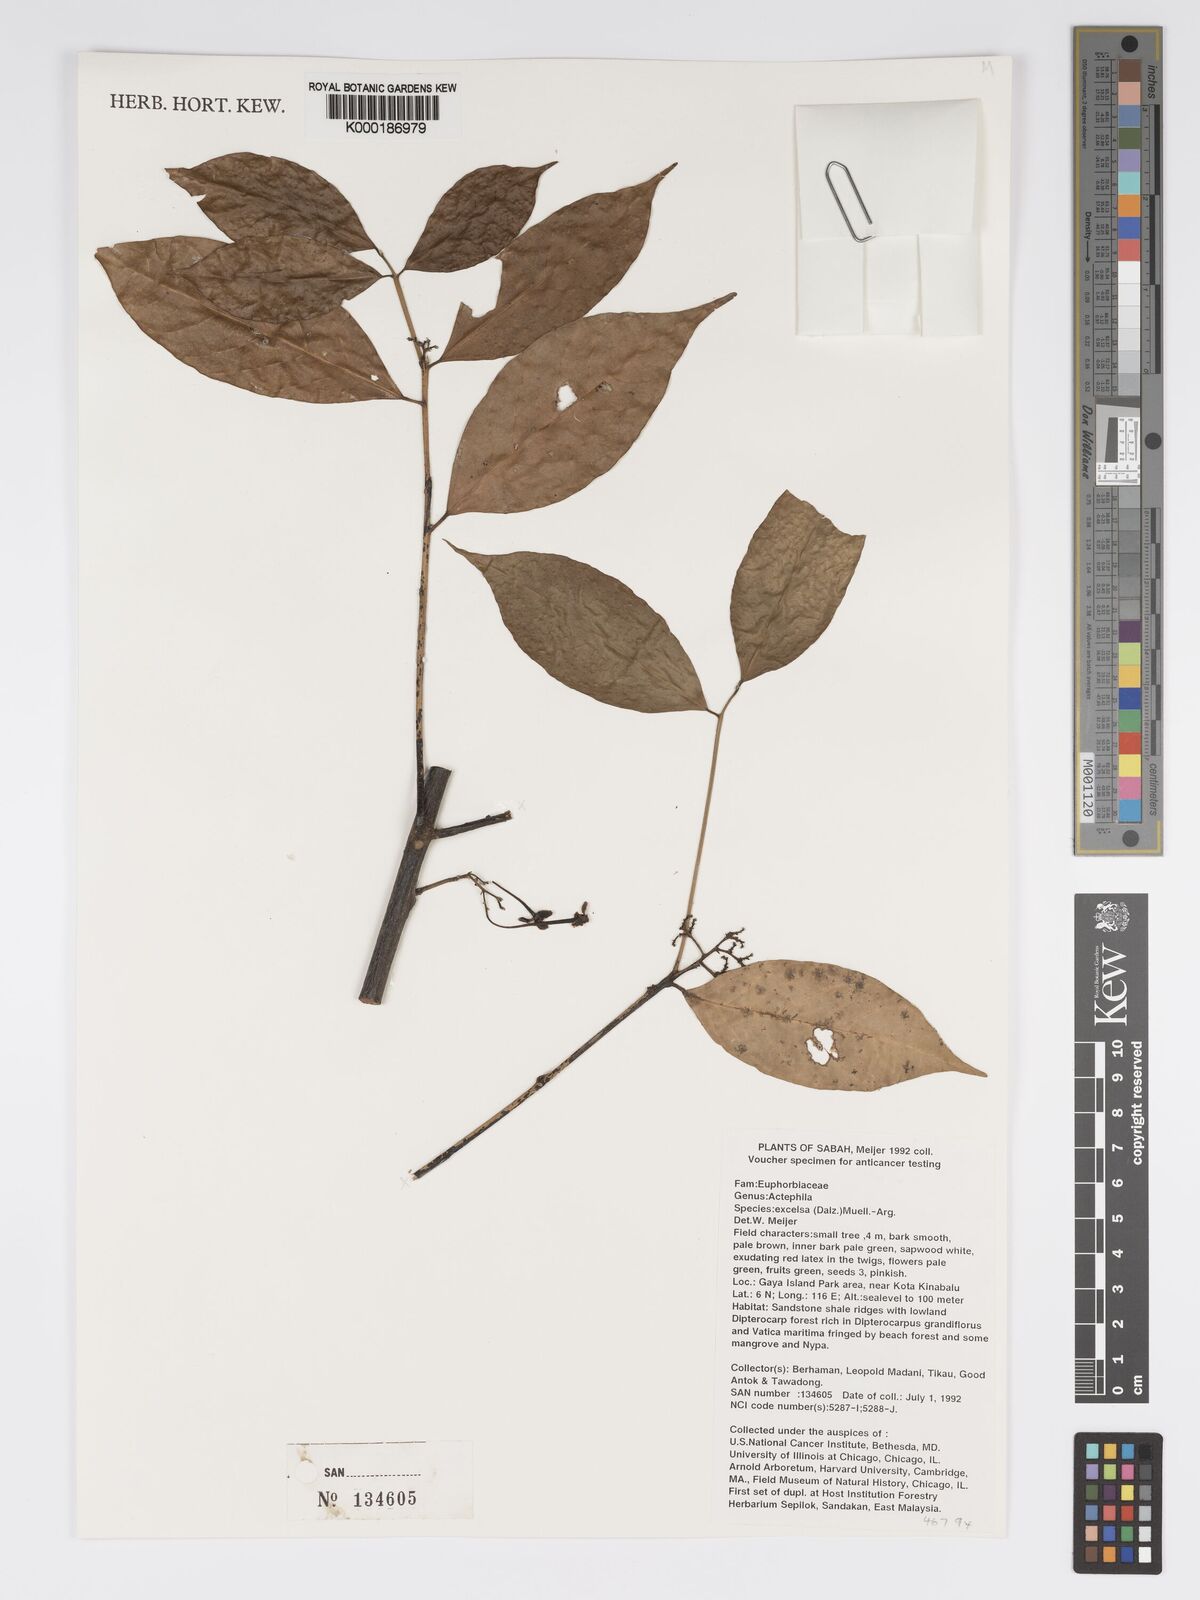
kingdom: Plantae
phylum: Tracheophyta
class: Magnoliopsida
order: Malpighiales
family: Phyllanthaceae
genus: Actephila
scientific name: Actephila
